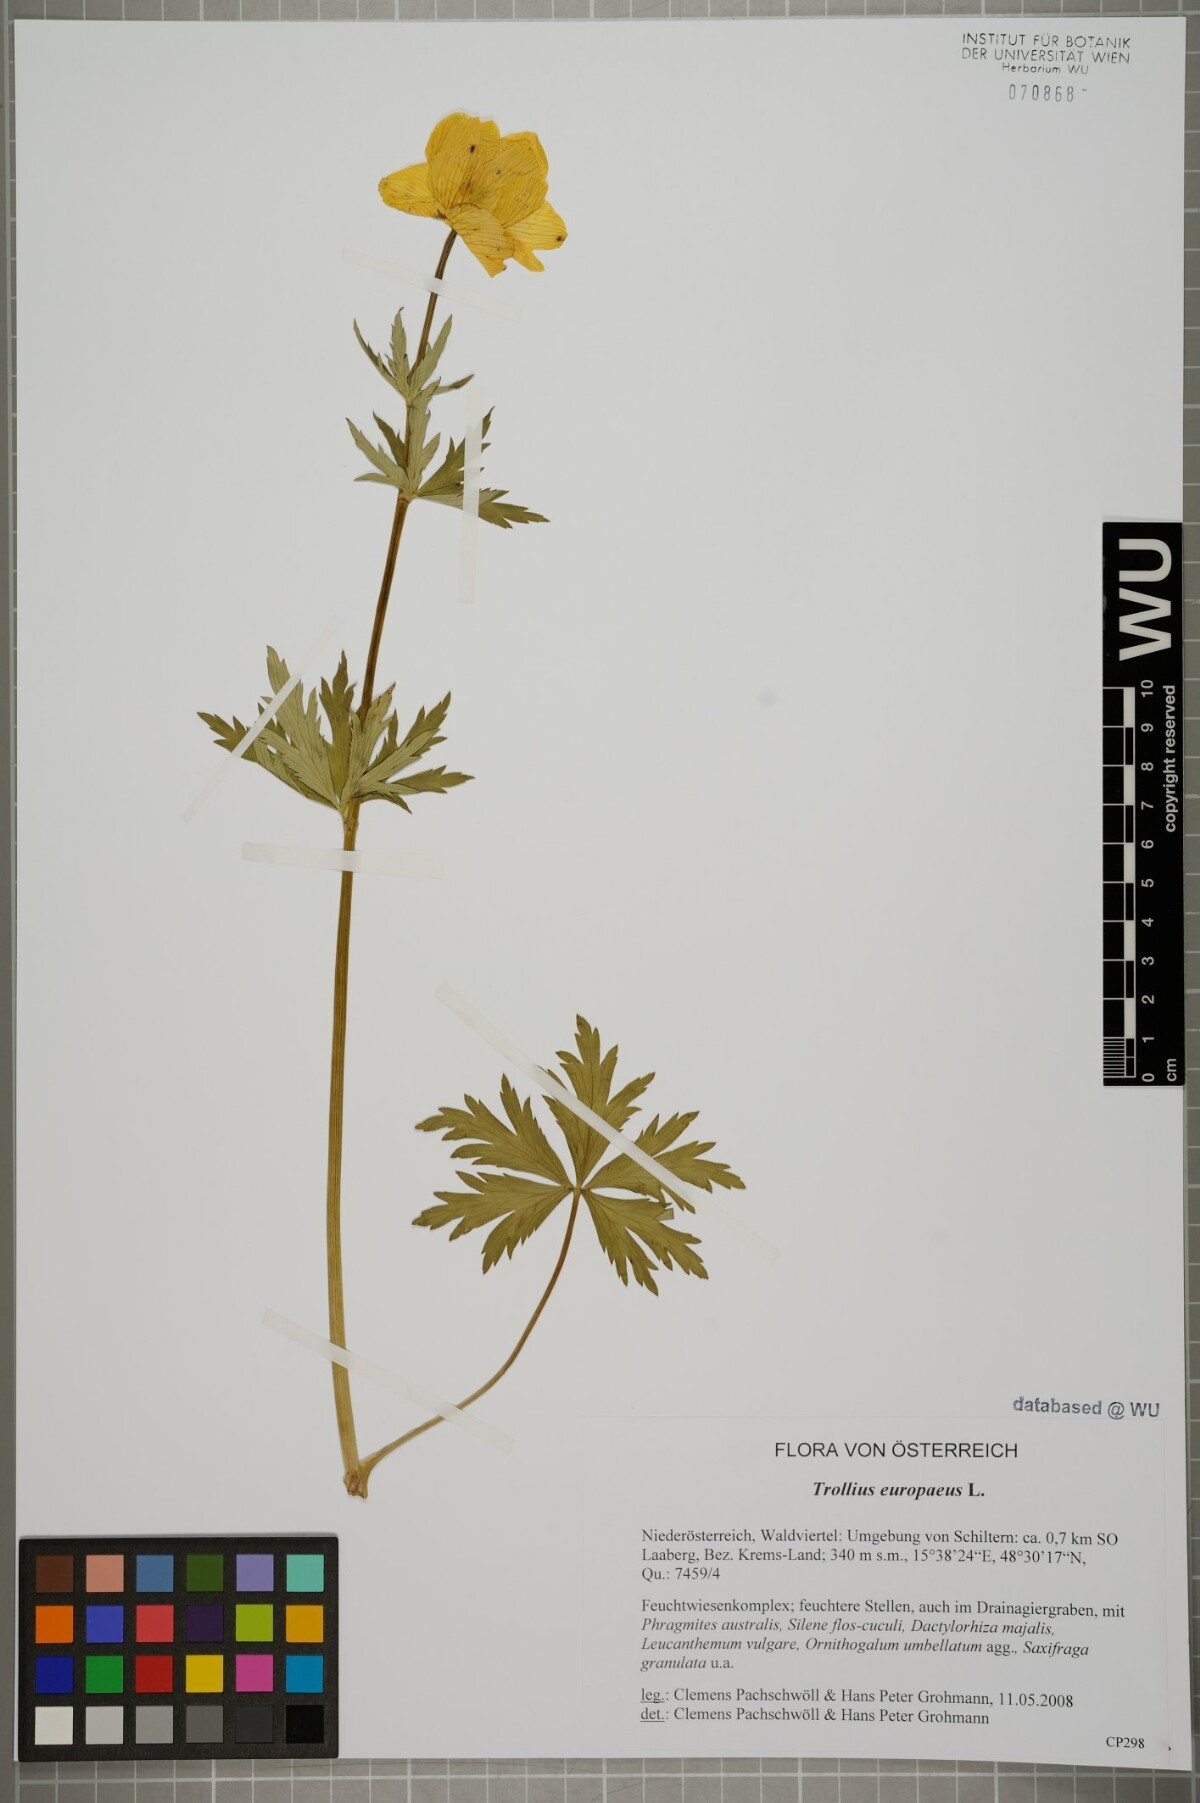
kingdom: Plantae
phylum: Tracheophyta
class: Magnoliopsida
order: Ranunculales
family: Ranunculaceae
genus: Trollius
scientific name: Trollius europaeus
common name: European globeflower
